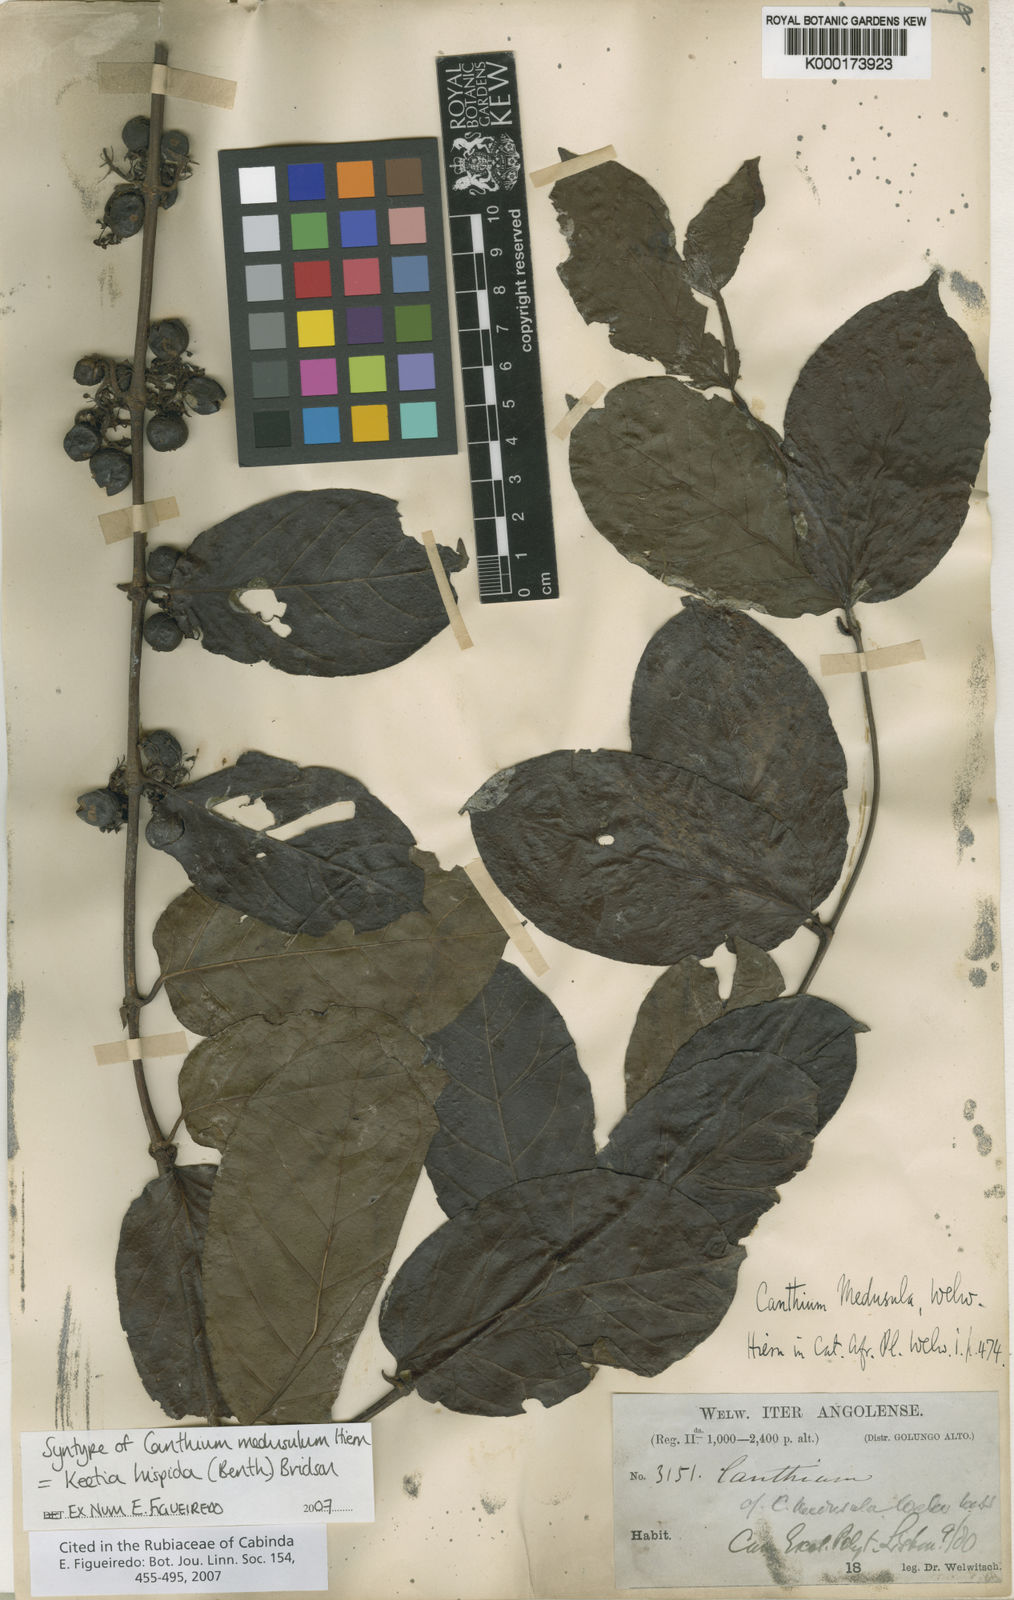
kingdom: Plantae
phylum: Tracheophyta
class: Magnoliopsida
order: Gentianales
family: Rubiaceae
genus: Keetia
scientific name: Keetia hispida
